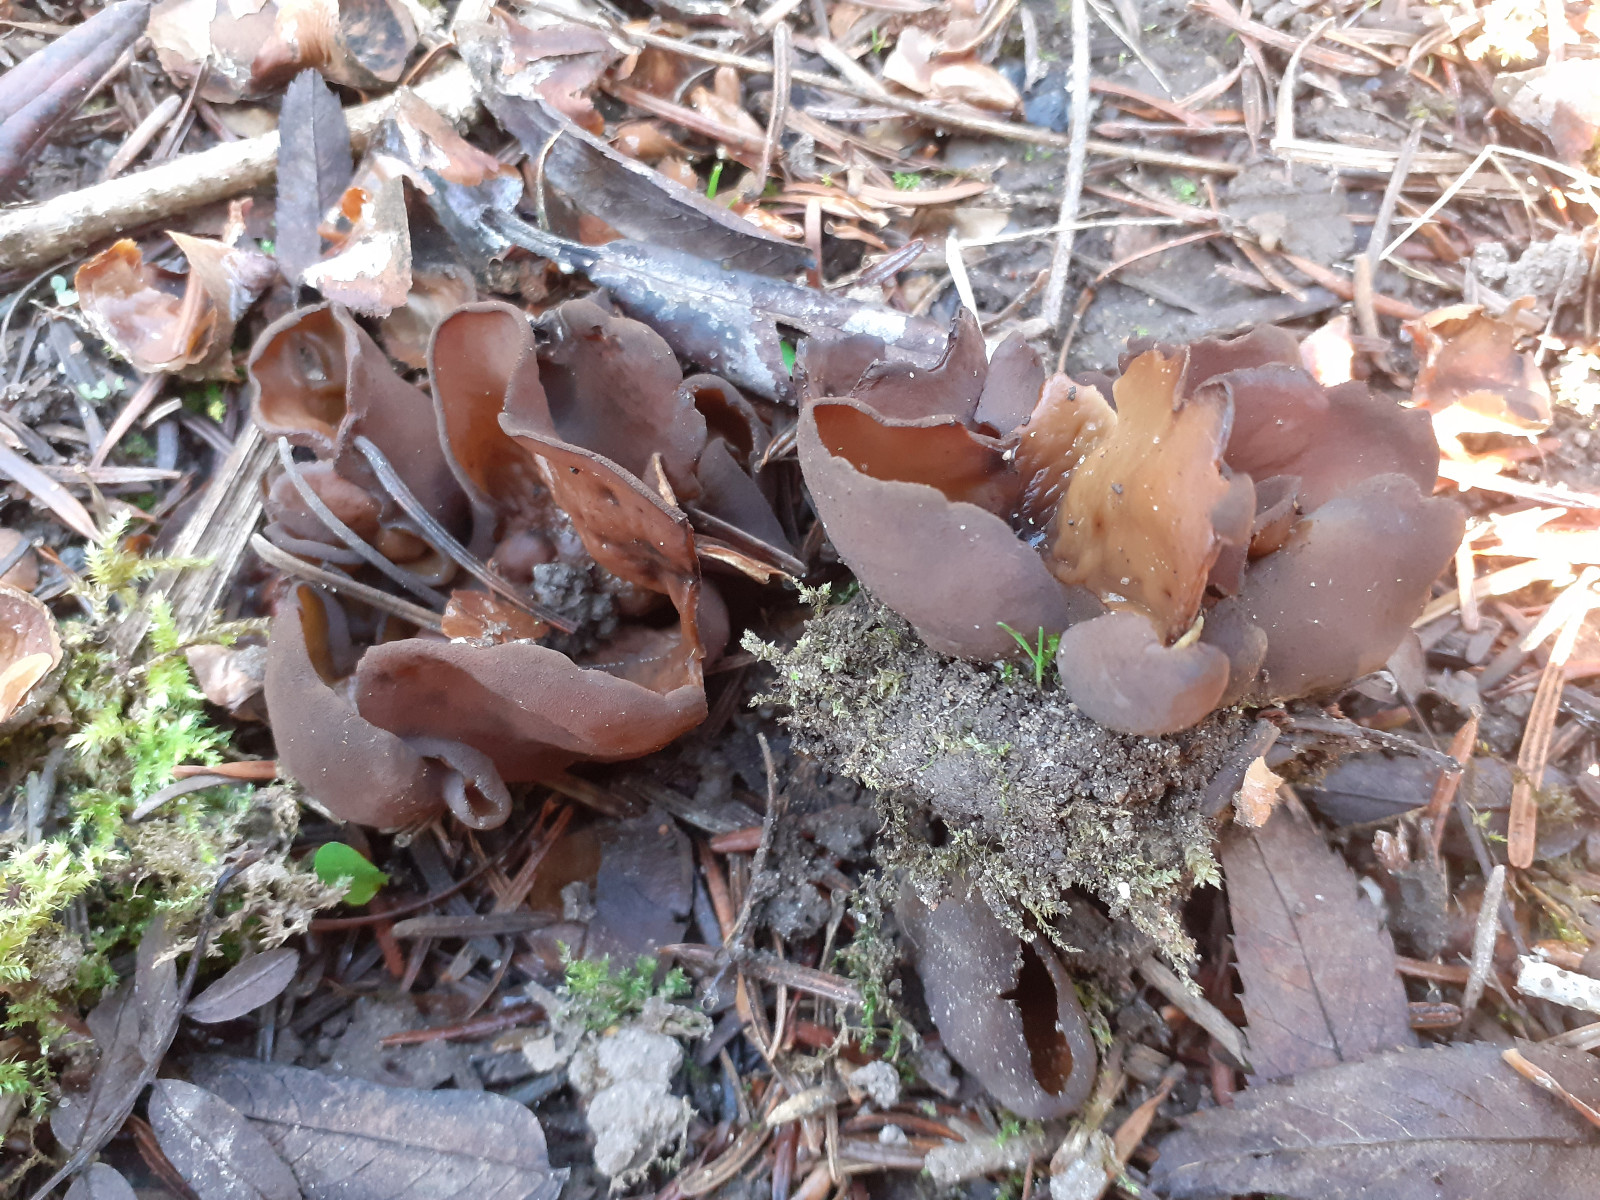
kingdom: Fungi
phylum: Ascomycota
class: Pezizomycetes
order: Pezizales
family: Otideaceae
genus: Otidea
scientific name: Otidea bufonia
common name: brun ørebæger
